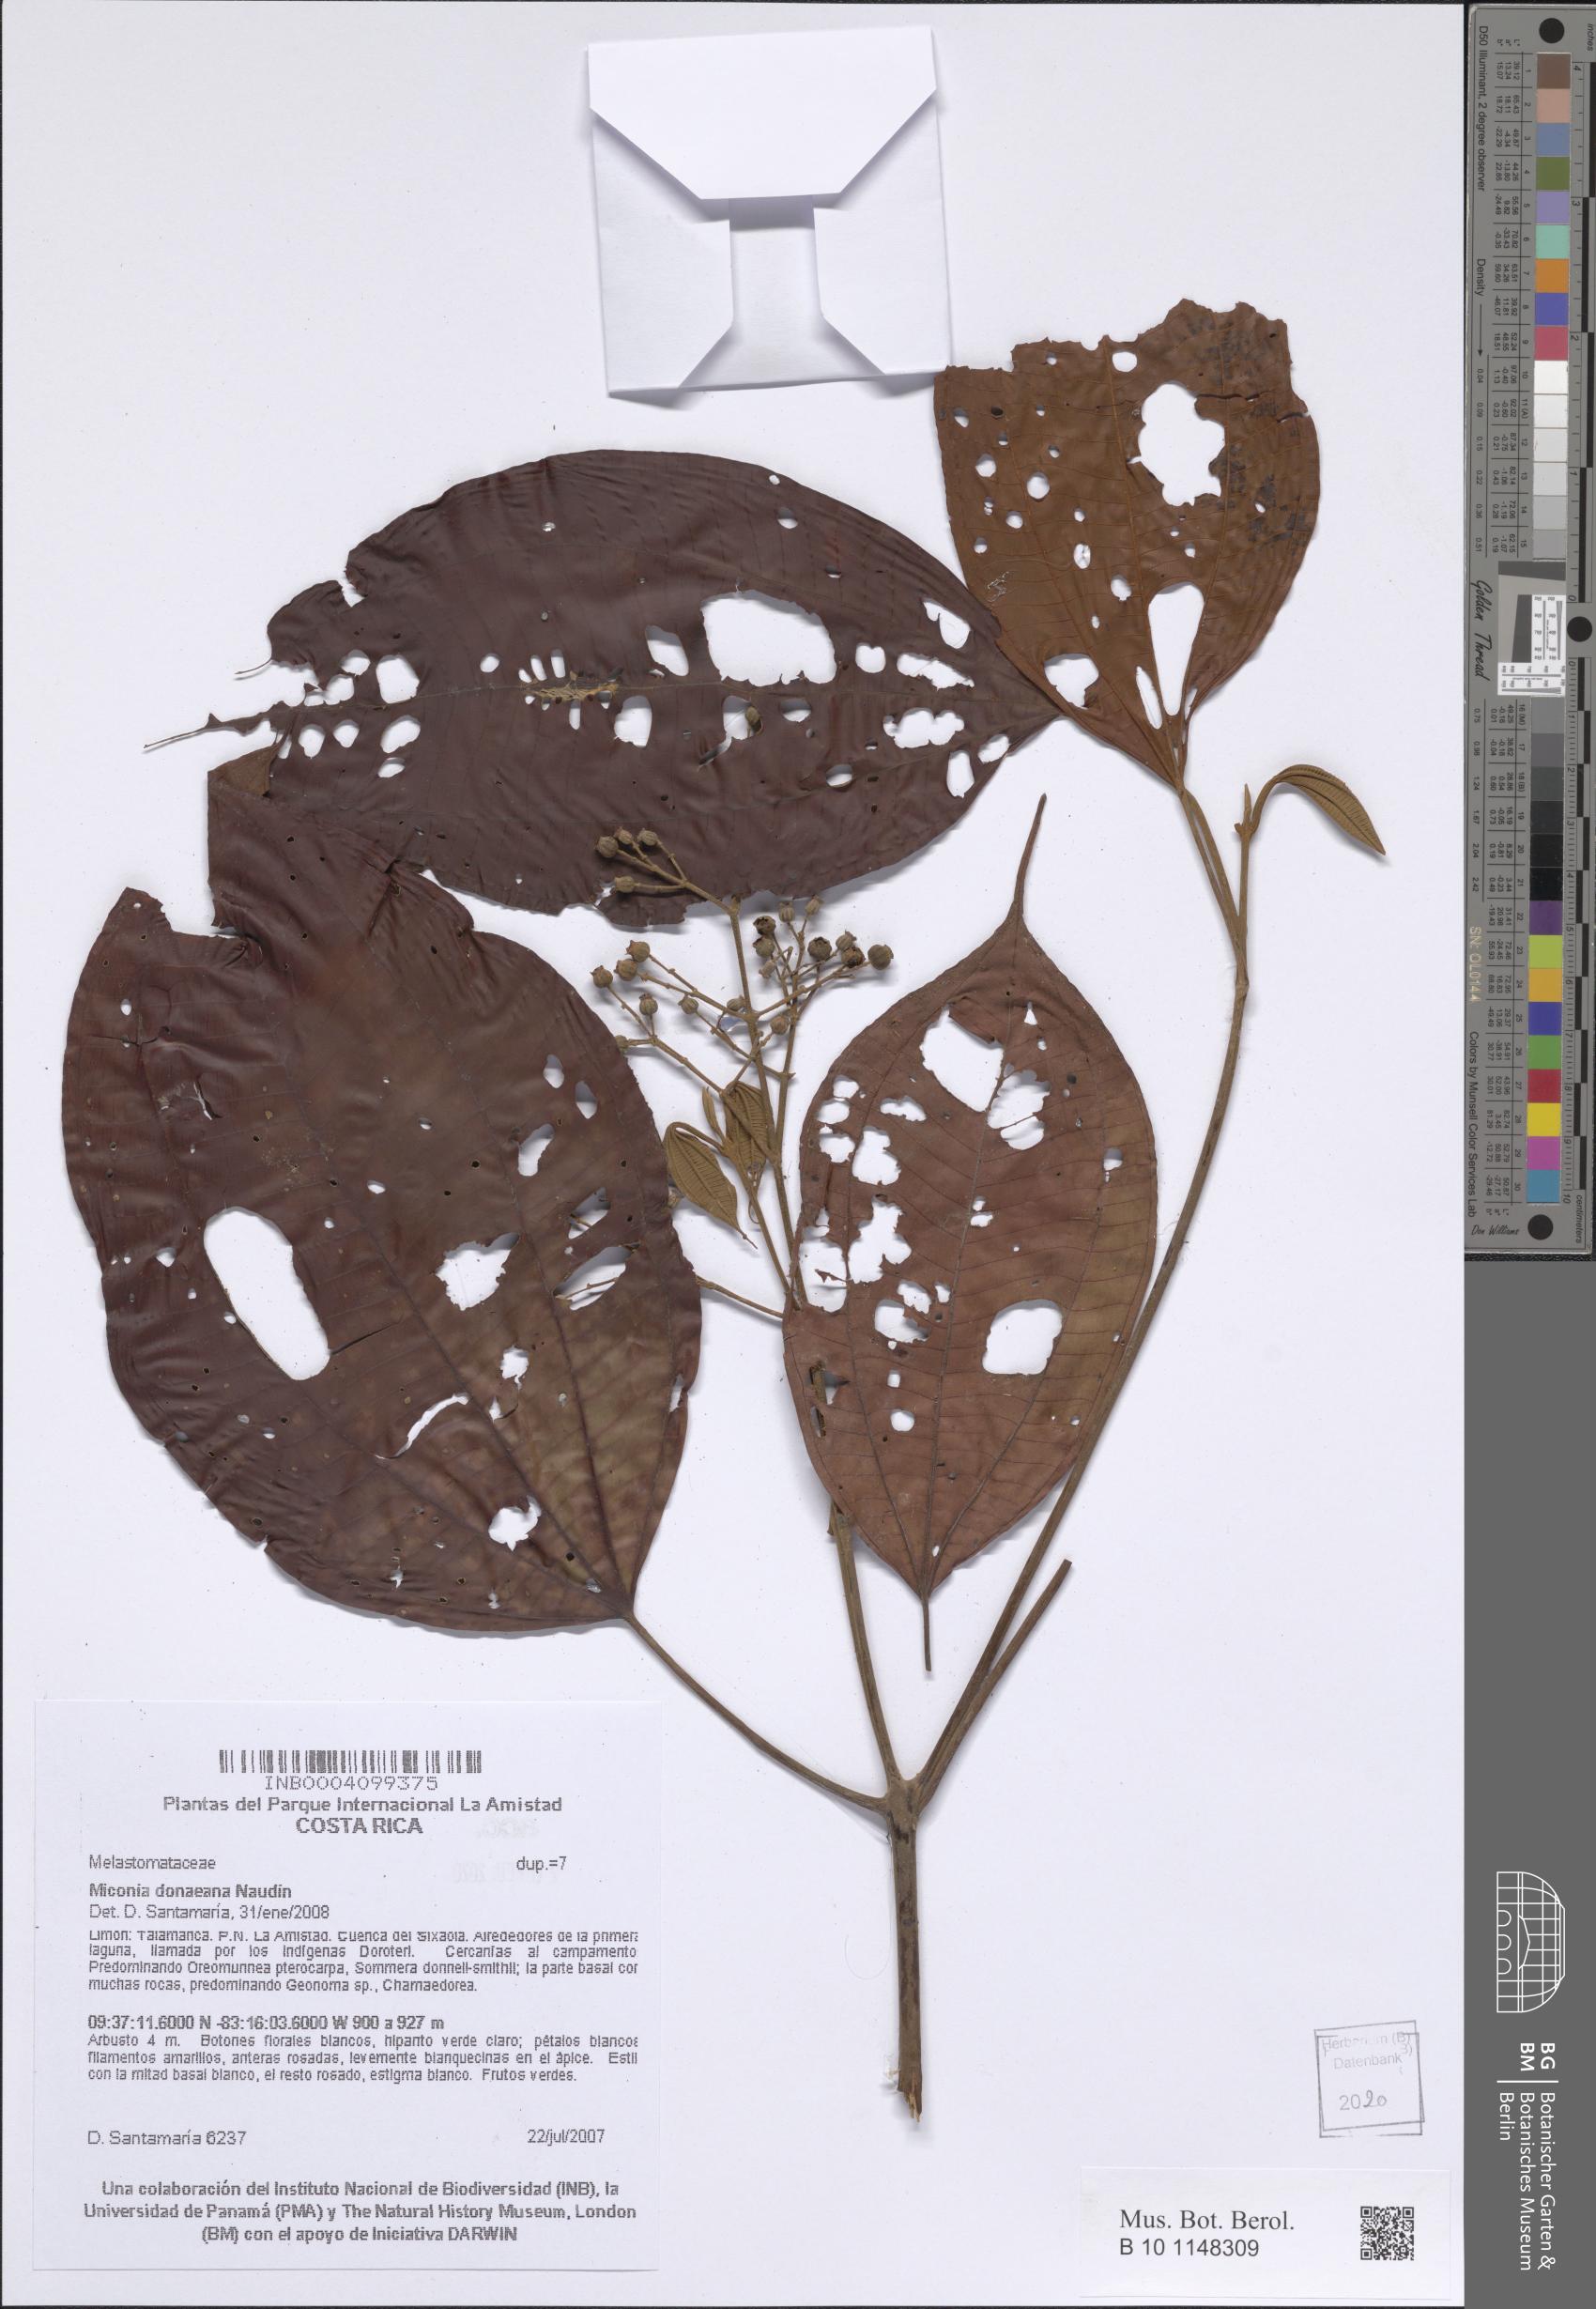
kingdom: Plantae
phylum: Tracheophyta
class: Magnoliopsida
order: Myrtales
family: Melastomataceae
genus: Miconia
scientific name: Miconia donaeana
